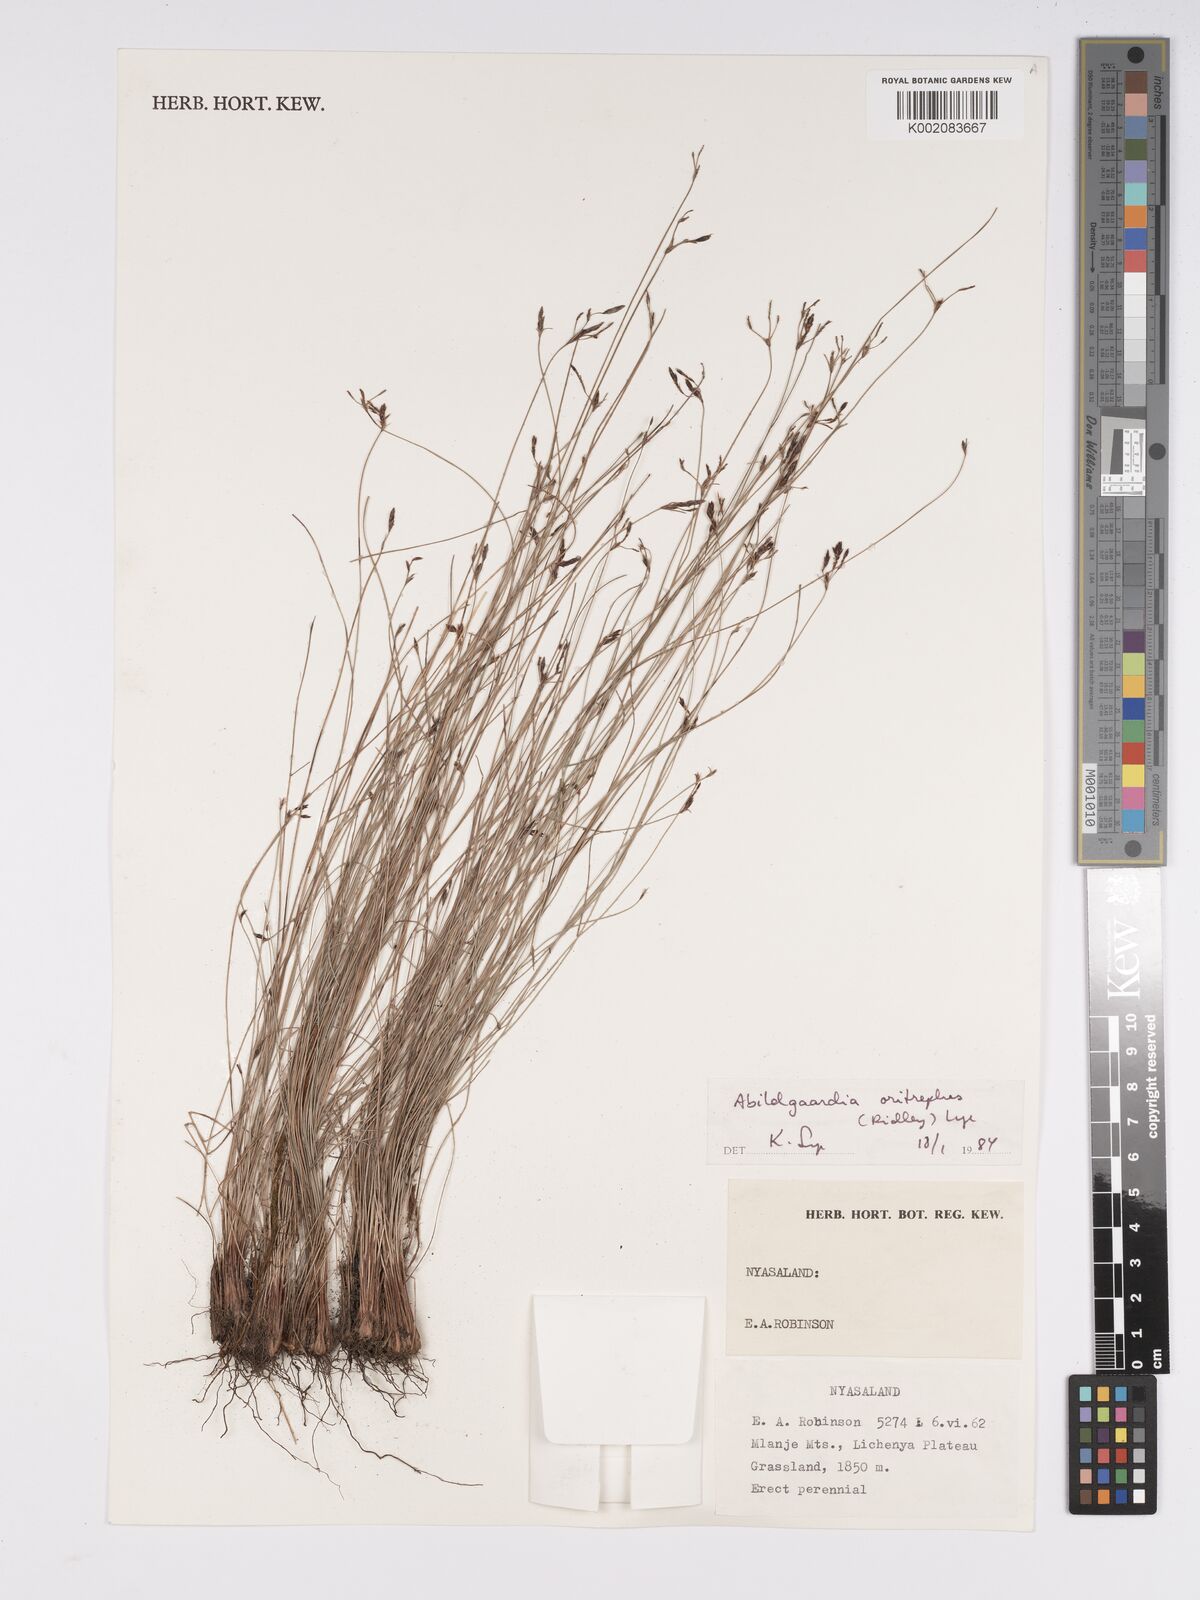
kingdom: Plantae
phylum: Tracheophyta
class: Liliopsida
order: Poales
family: Cyperaceae
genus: Bulbostylis
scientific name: Bulbostylis oritrephes
